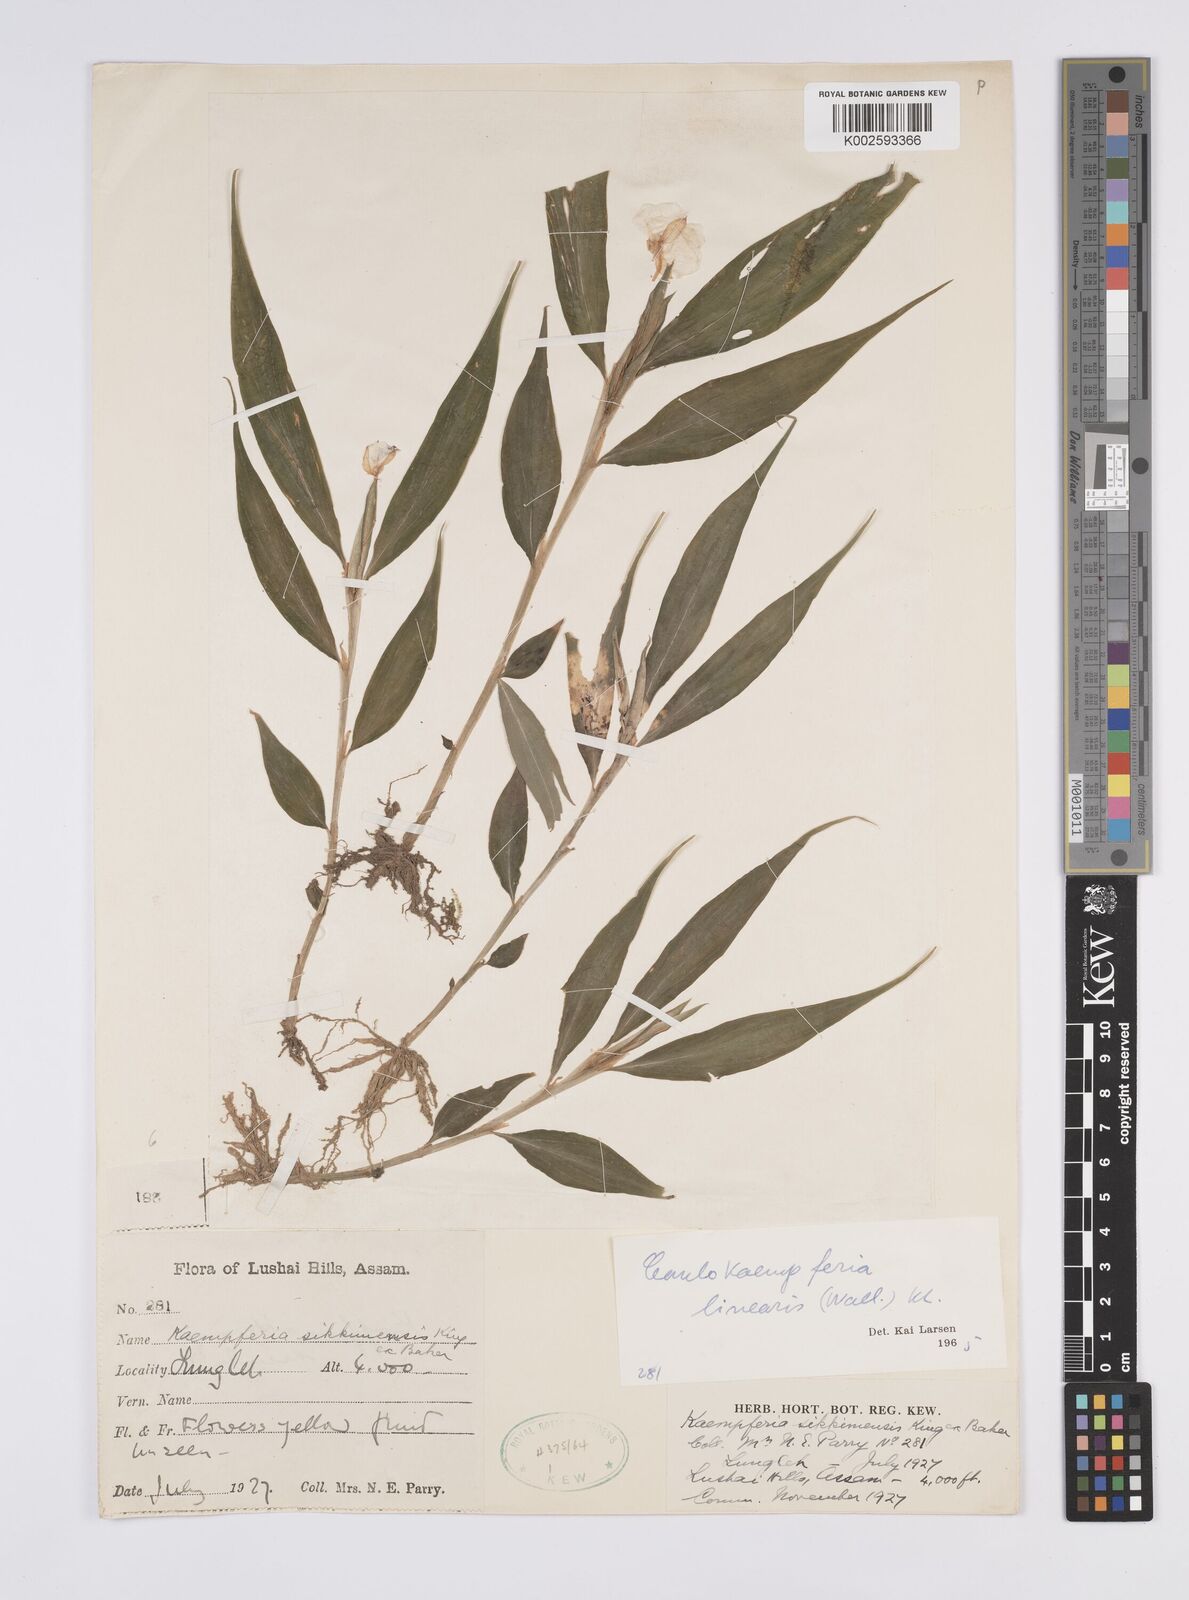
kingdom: Plantae
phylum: Tracheophyta
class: Liliopsida
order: Zingiberales
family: Zingiberaceae
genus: Caulokaempferia
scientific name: Caulokaempferia linearis
